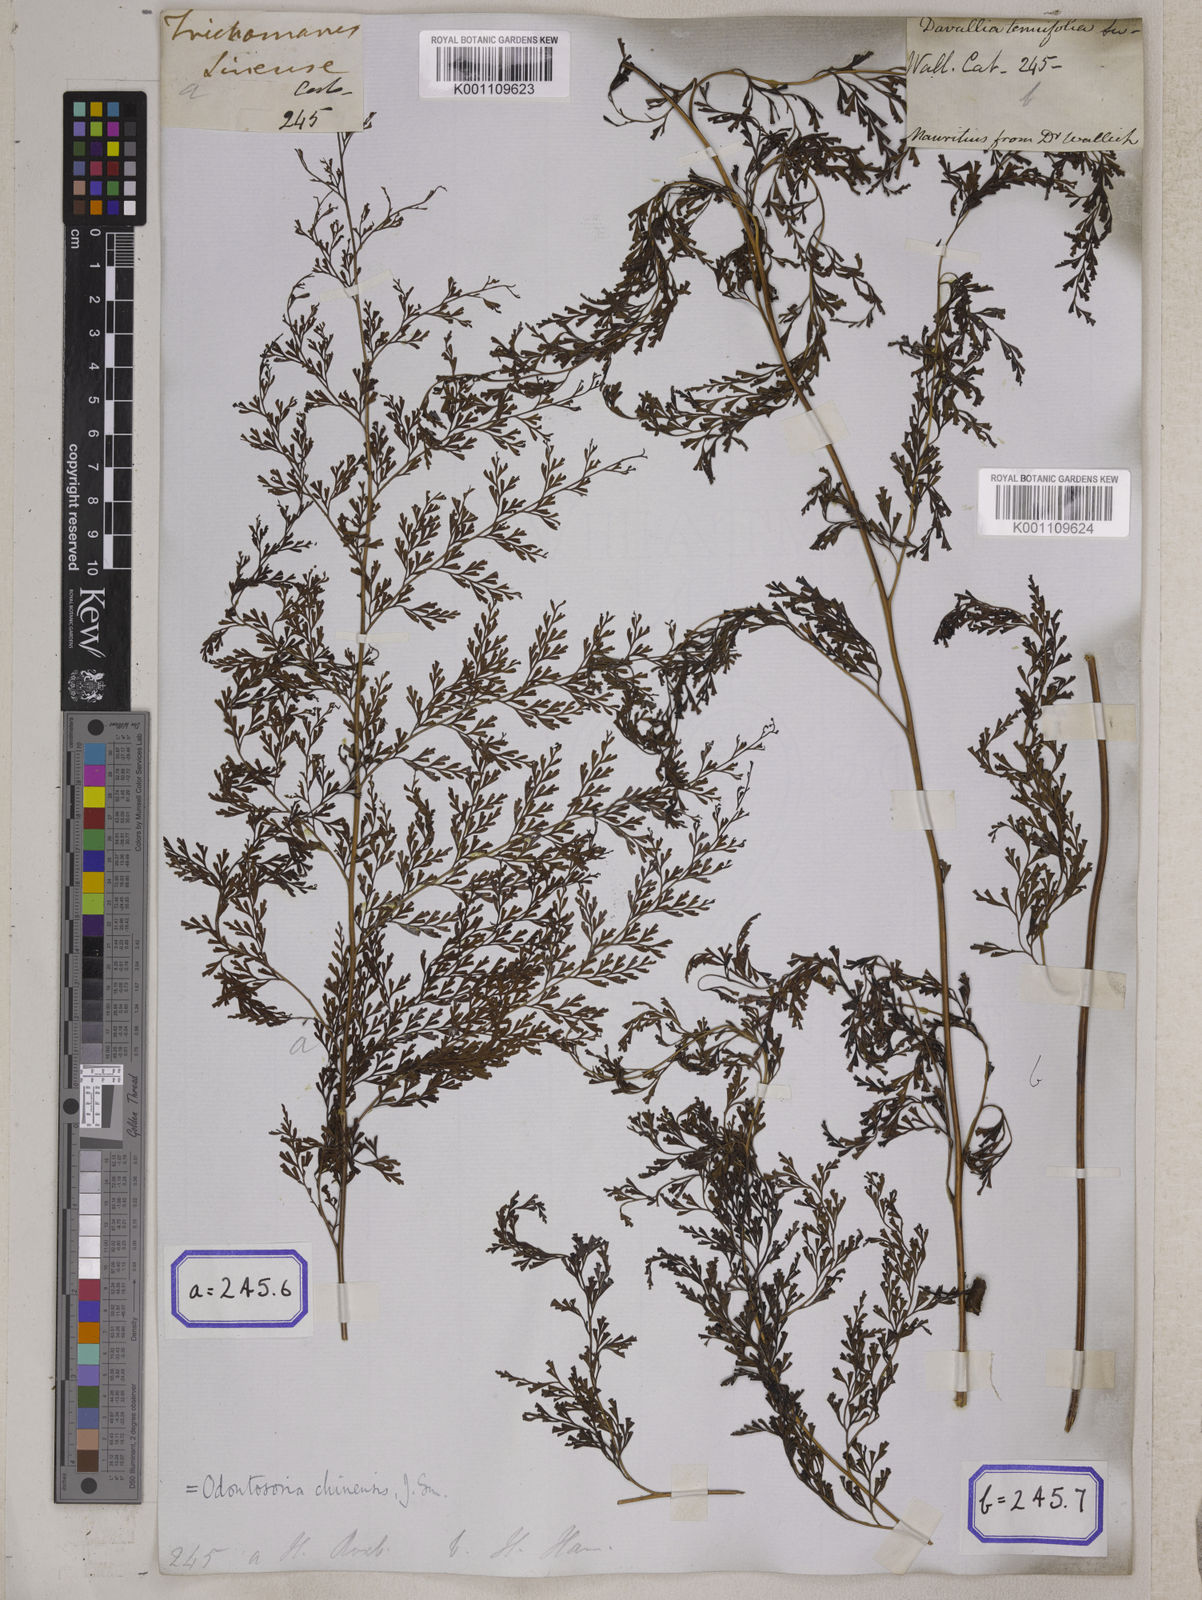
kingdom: Plantae
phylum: Tracheophyta
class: Polypodiopsida
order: Polypodiales
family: Lindsaeaceae
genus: Odontosoria
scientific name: Odontosoria chinensis
